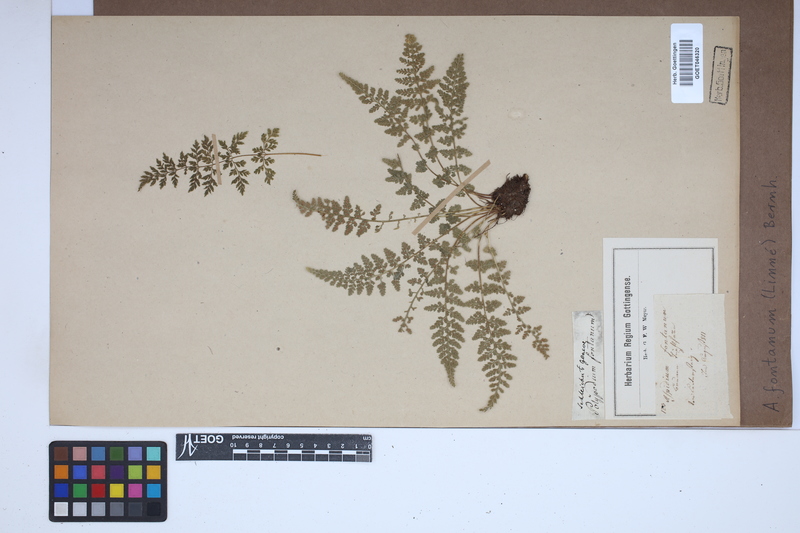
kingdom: Plantae
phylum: Tracheophyta
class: Polypodiopsida
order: Polypodiales
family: Aspleniaceae
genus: Asplenium
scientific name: Asplenium fontanum
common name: Fountain spleenwort
